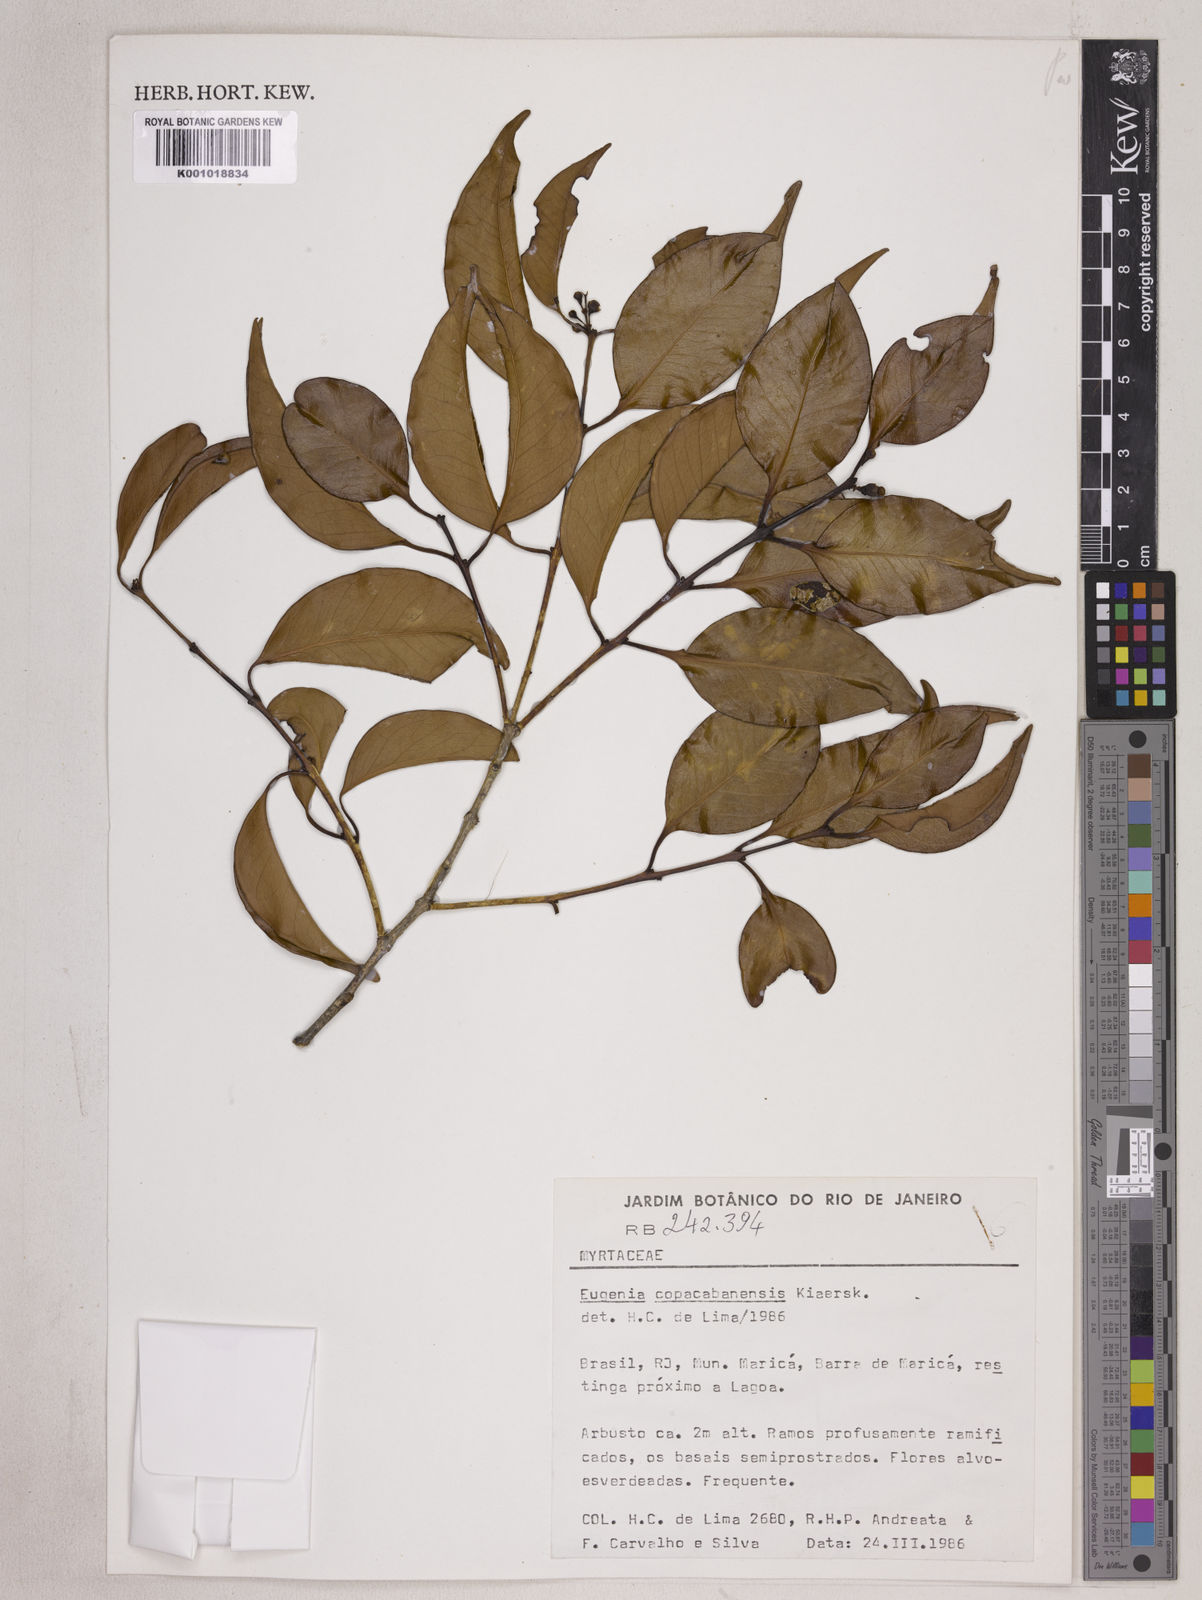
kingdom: Plantae
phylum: Tracheophyta
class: Magnoliopsida
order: Myrtales
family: Myrtaceae
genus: Eugenia
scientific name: Eugenia copacabanensis
